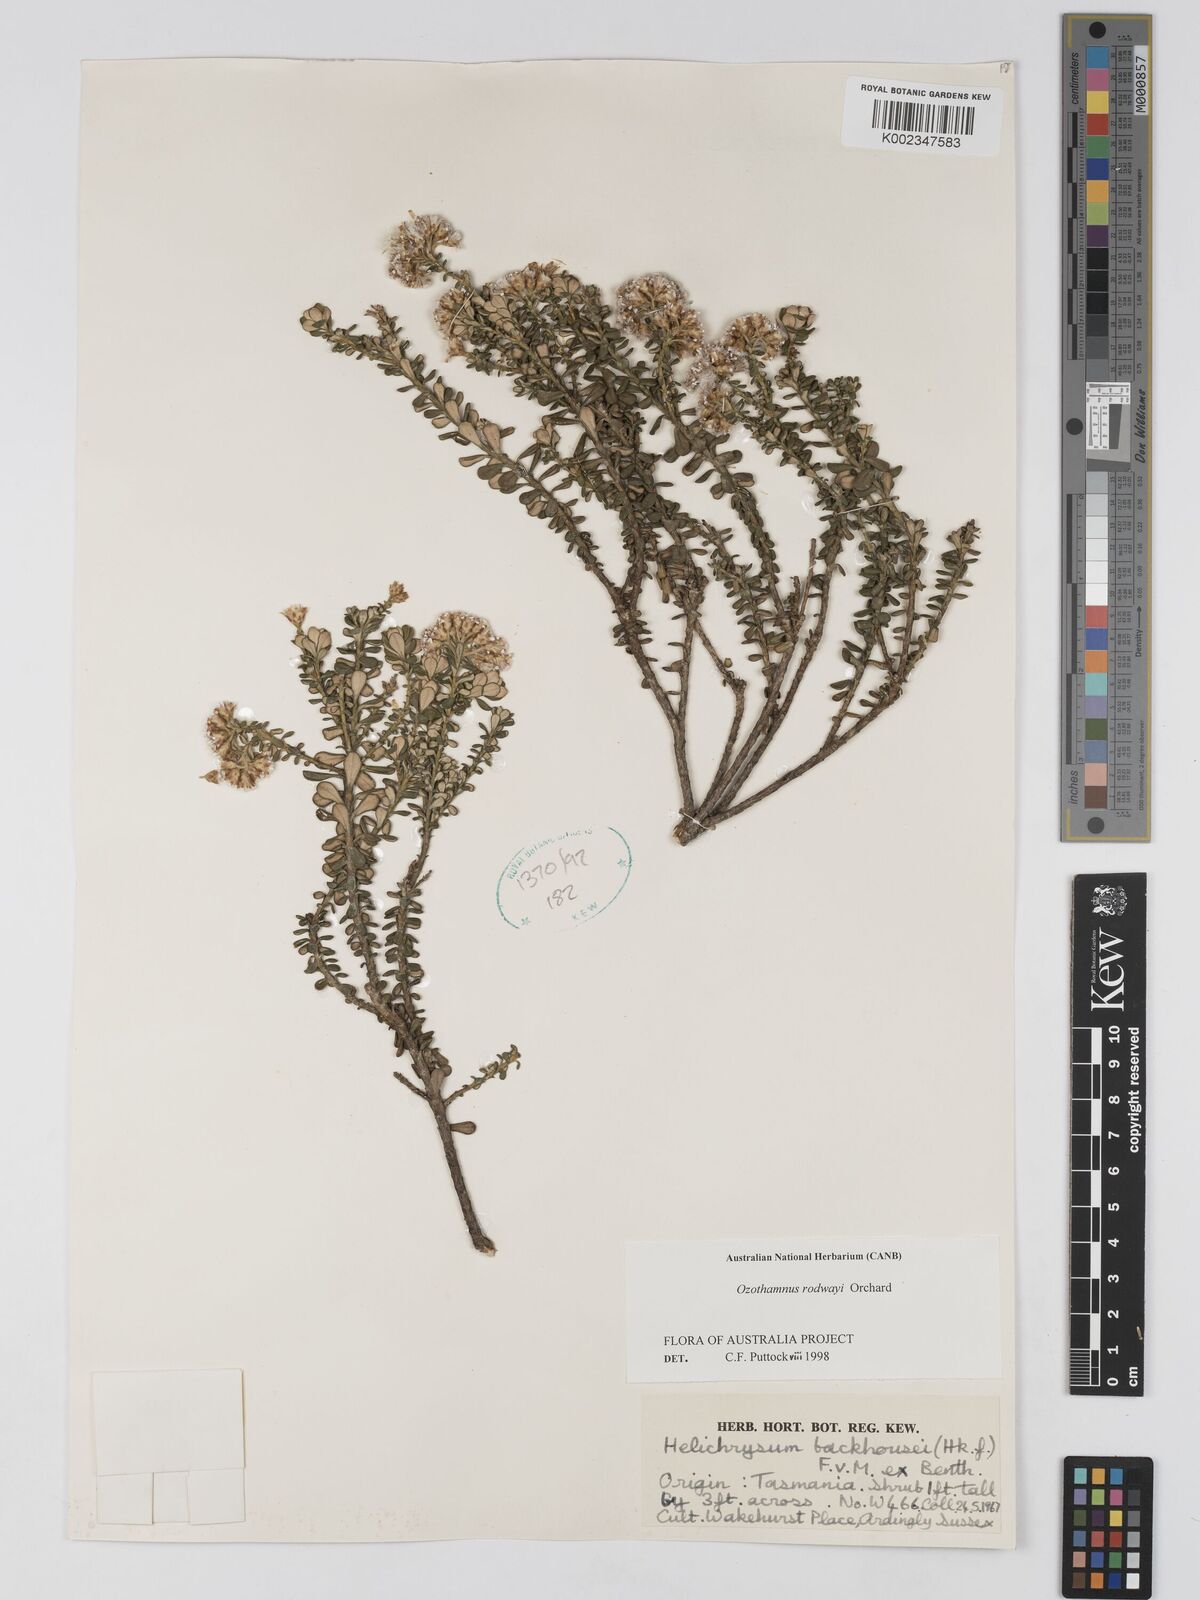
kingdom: Plantae
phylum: Tracheophyta
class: Magnoliopsida
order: Asterales
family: Asteraceae
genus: Ozothamnus
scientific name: Ozothamnus rodwayi
